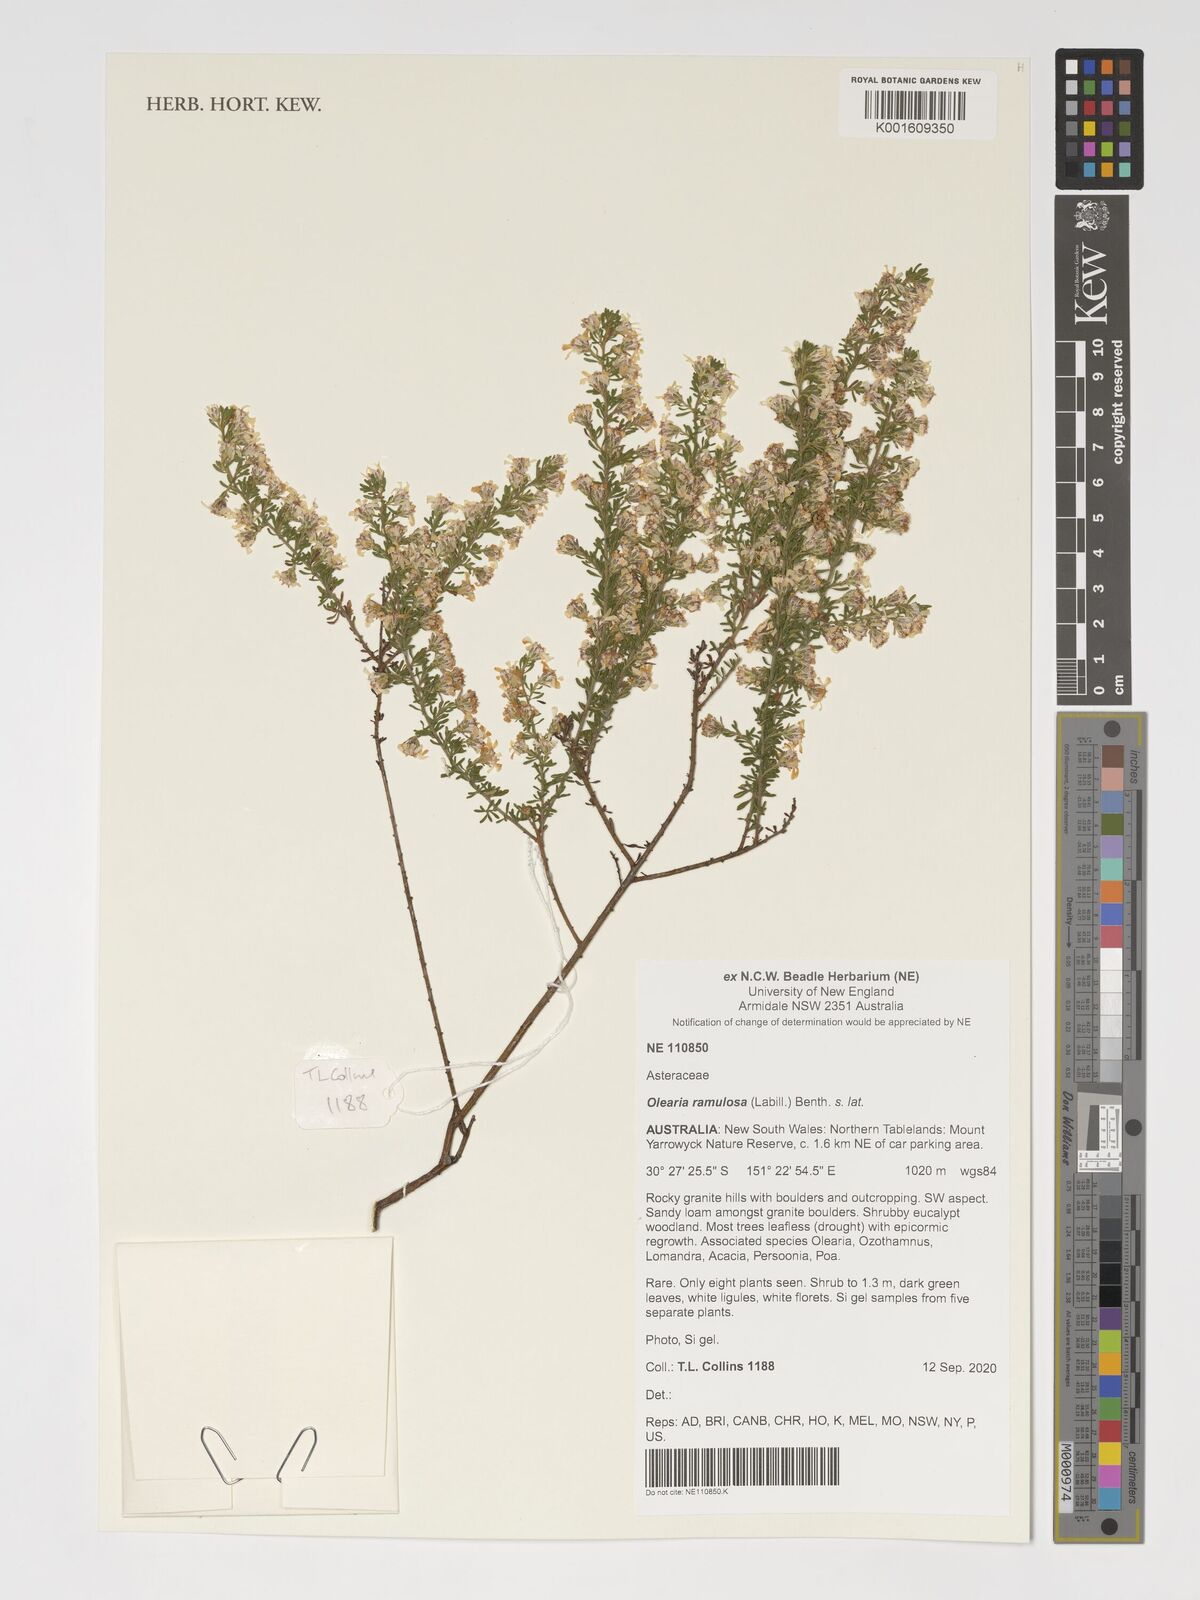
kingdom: Plantae
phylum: Tracheophyta
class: Magnoliopsida
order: Asterales
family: Asteraceae
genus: Olearia
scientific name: Olearia ramulosa
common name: Twiggy daisybush
